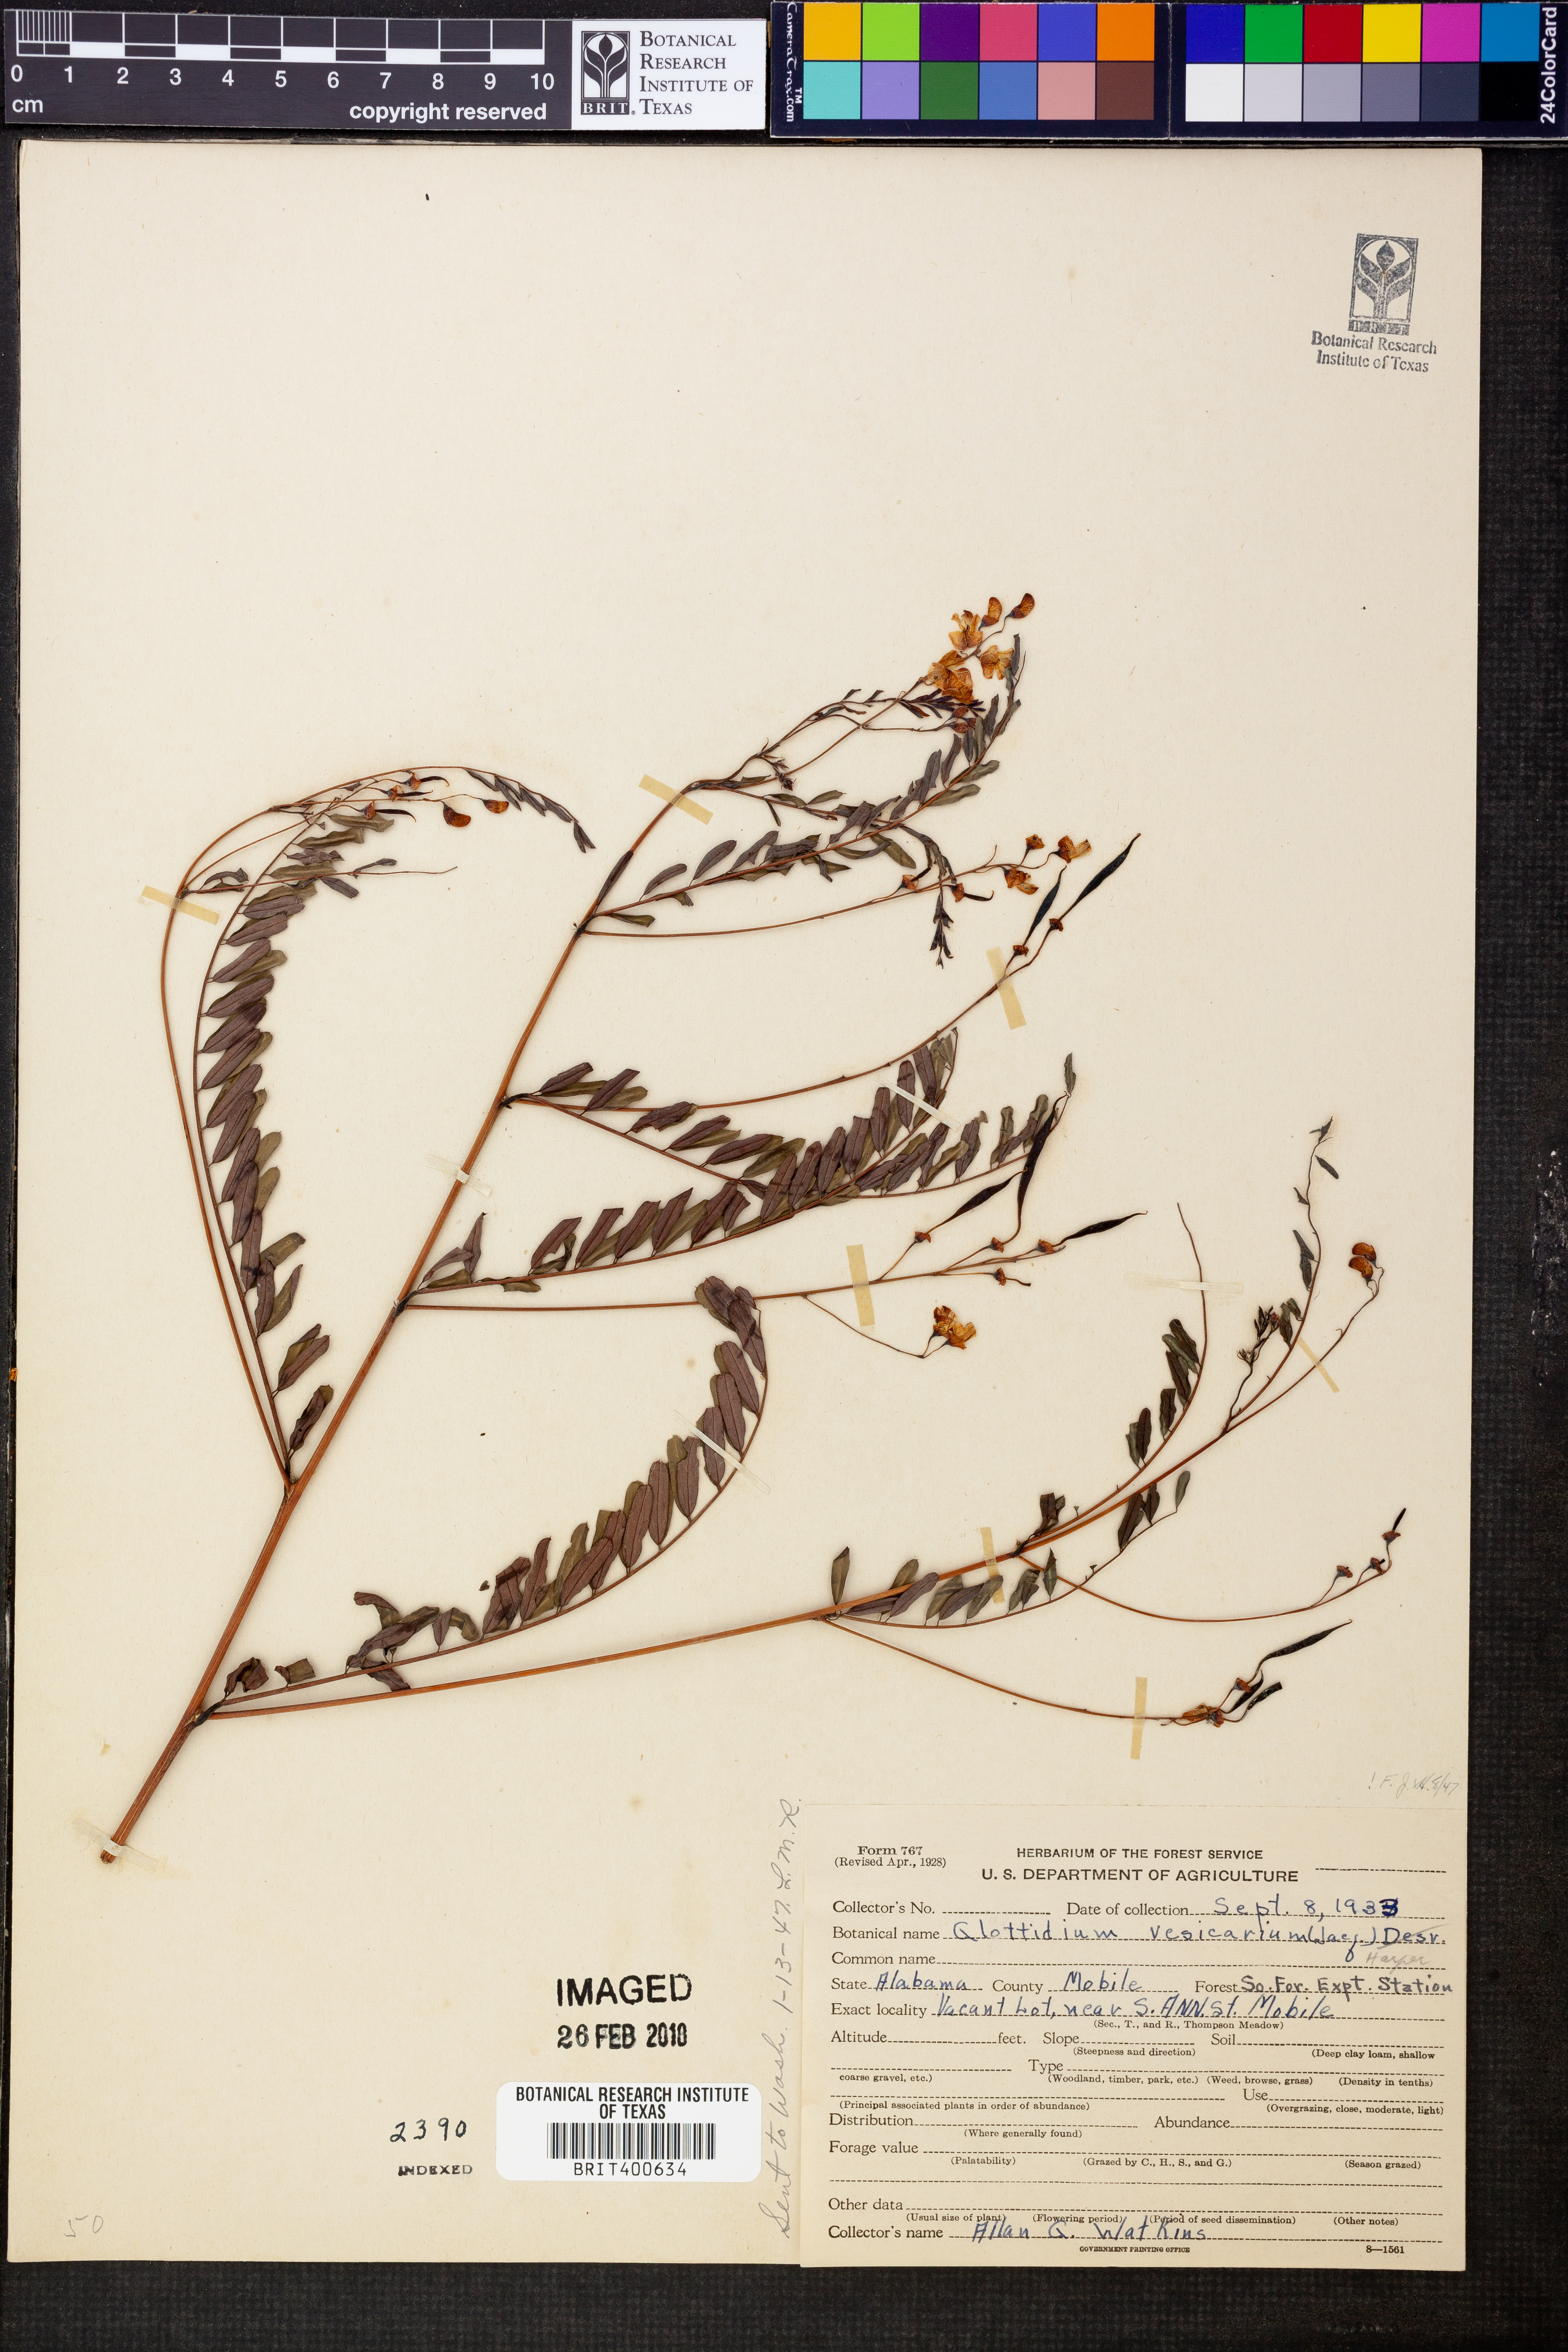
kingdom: Plantae
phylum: Tracheophyta
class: Magnoliopsida
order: Fabales
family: Fabaceae
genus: Sesbania
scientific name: Sesbania vesicaria
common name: Bagpod
